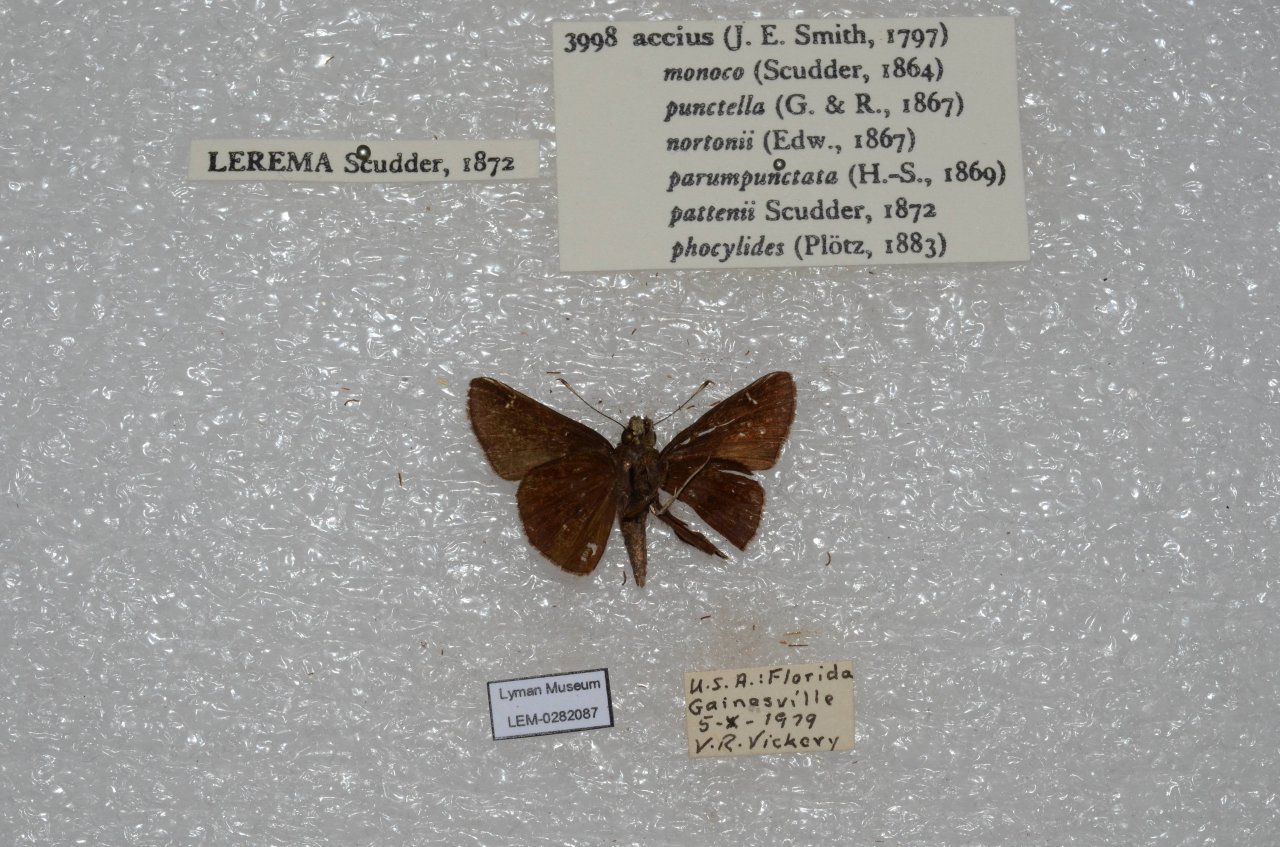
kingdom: Animalia
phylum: Arthropoda
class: Insecta
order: Lepidoptera
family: Hesperiidae
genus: Lerema
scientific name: Lerema accius
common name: Clouded Skipper
